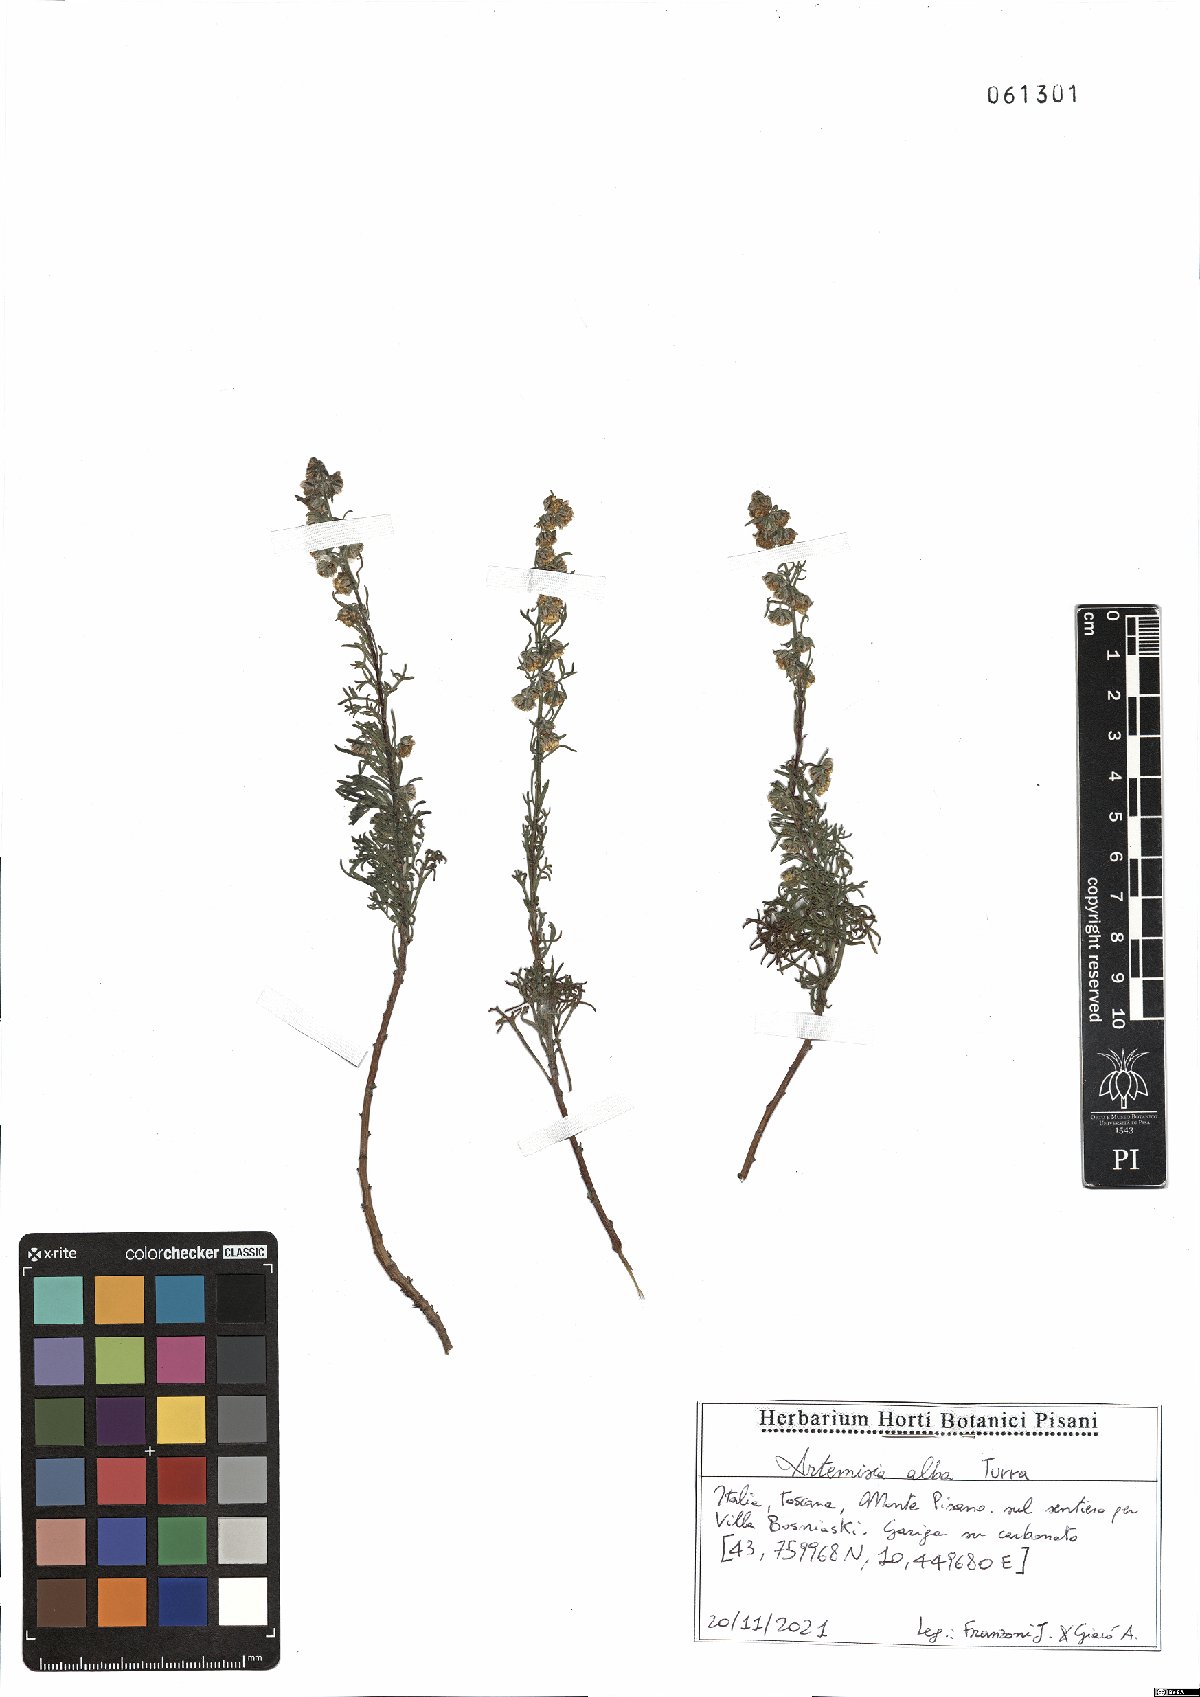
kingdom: Plantae
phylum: Tracheophyta
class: Magnoliopsida
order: Asterales
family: Asteraceae
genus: Artemisia
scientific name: Artemisia alba
